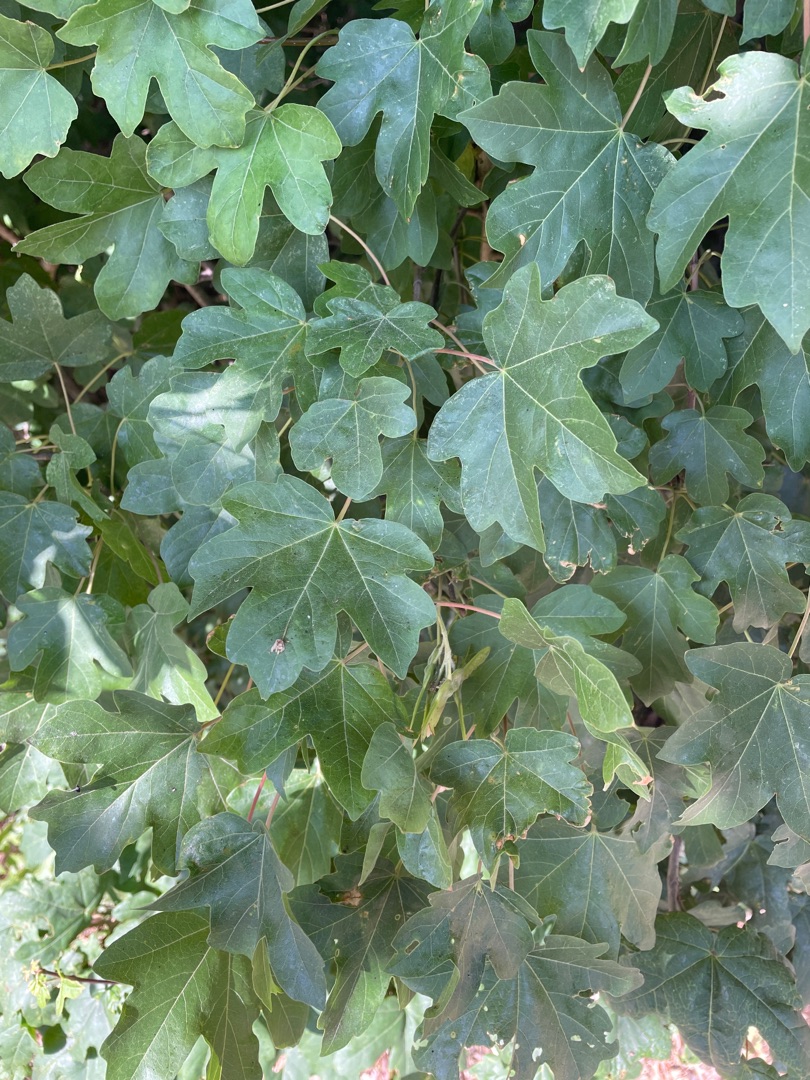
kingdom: Plantae
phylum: Tracheophyta
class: Magnoliopsida
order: Sapindales
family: Sapindaceae
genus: Acer
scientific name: Acer campestre
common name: Navr
